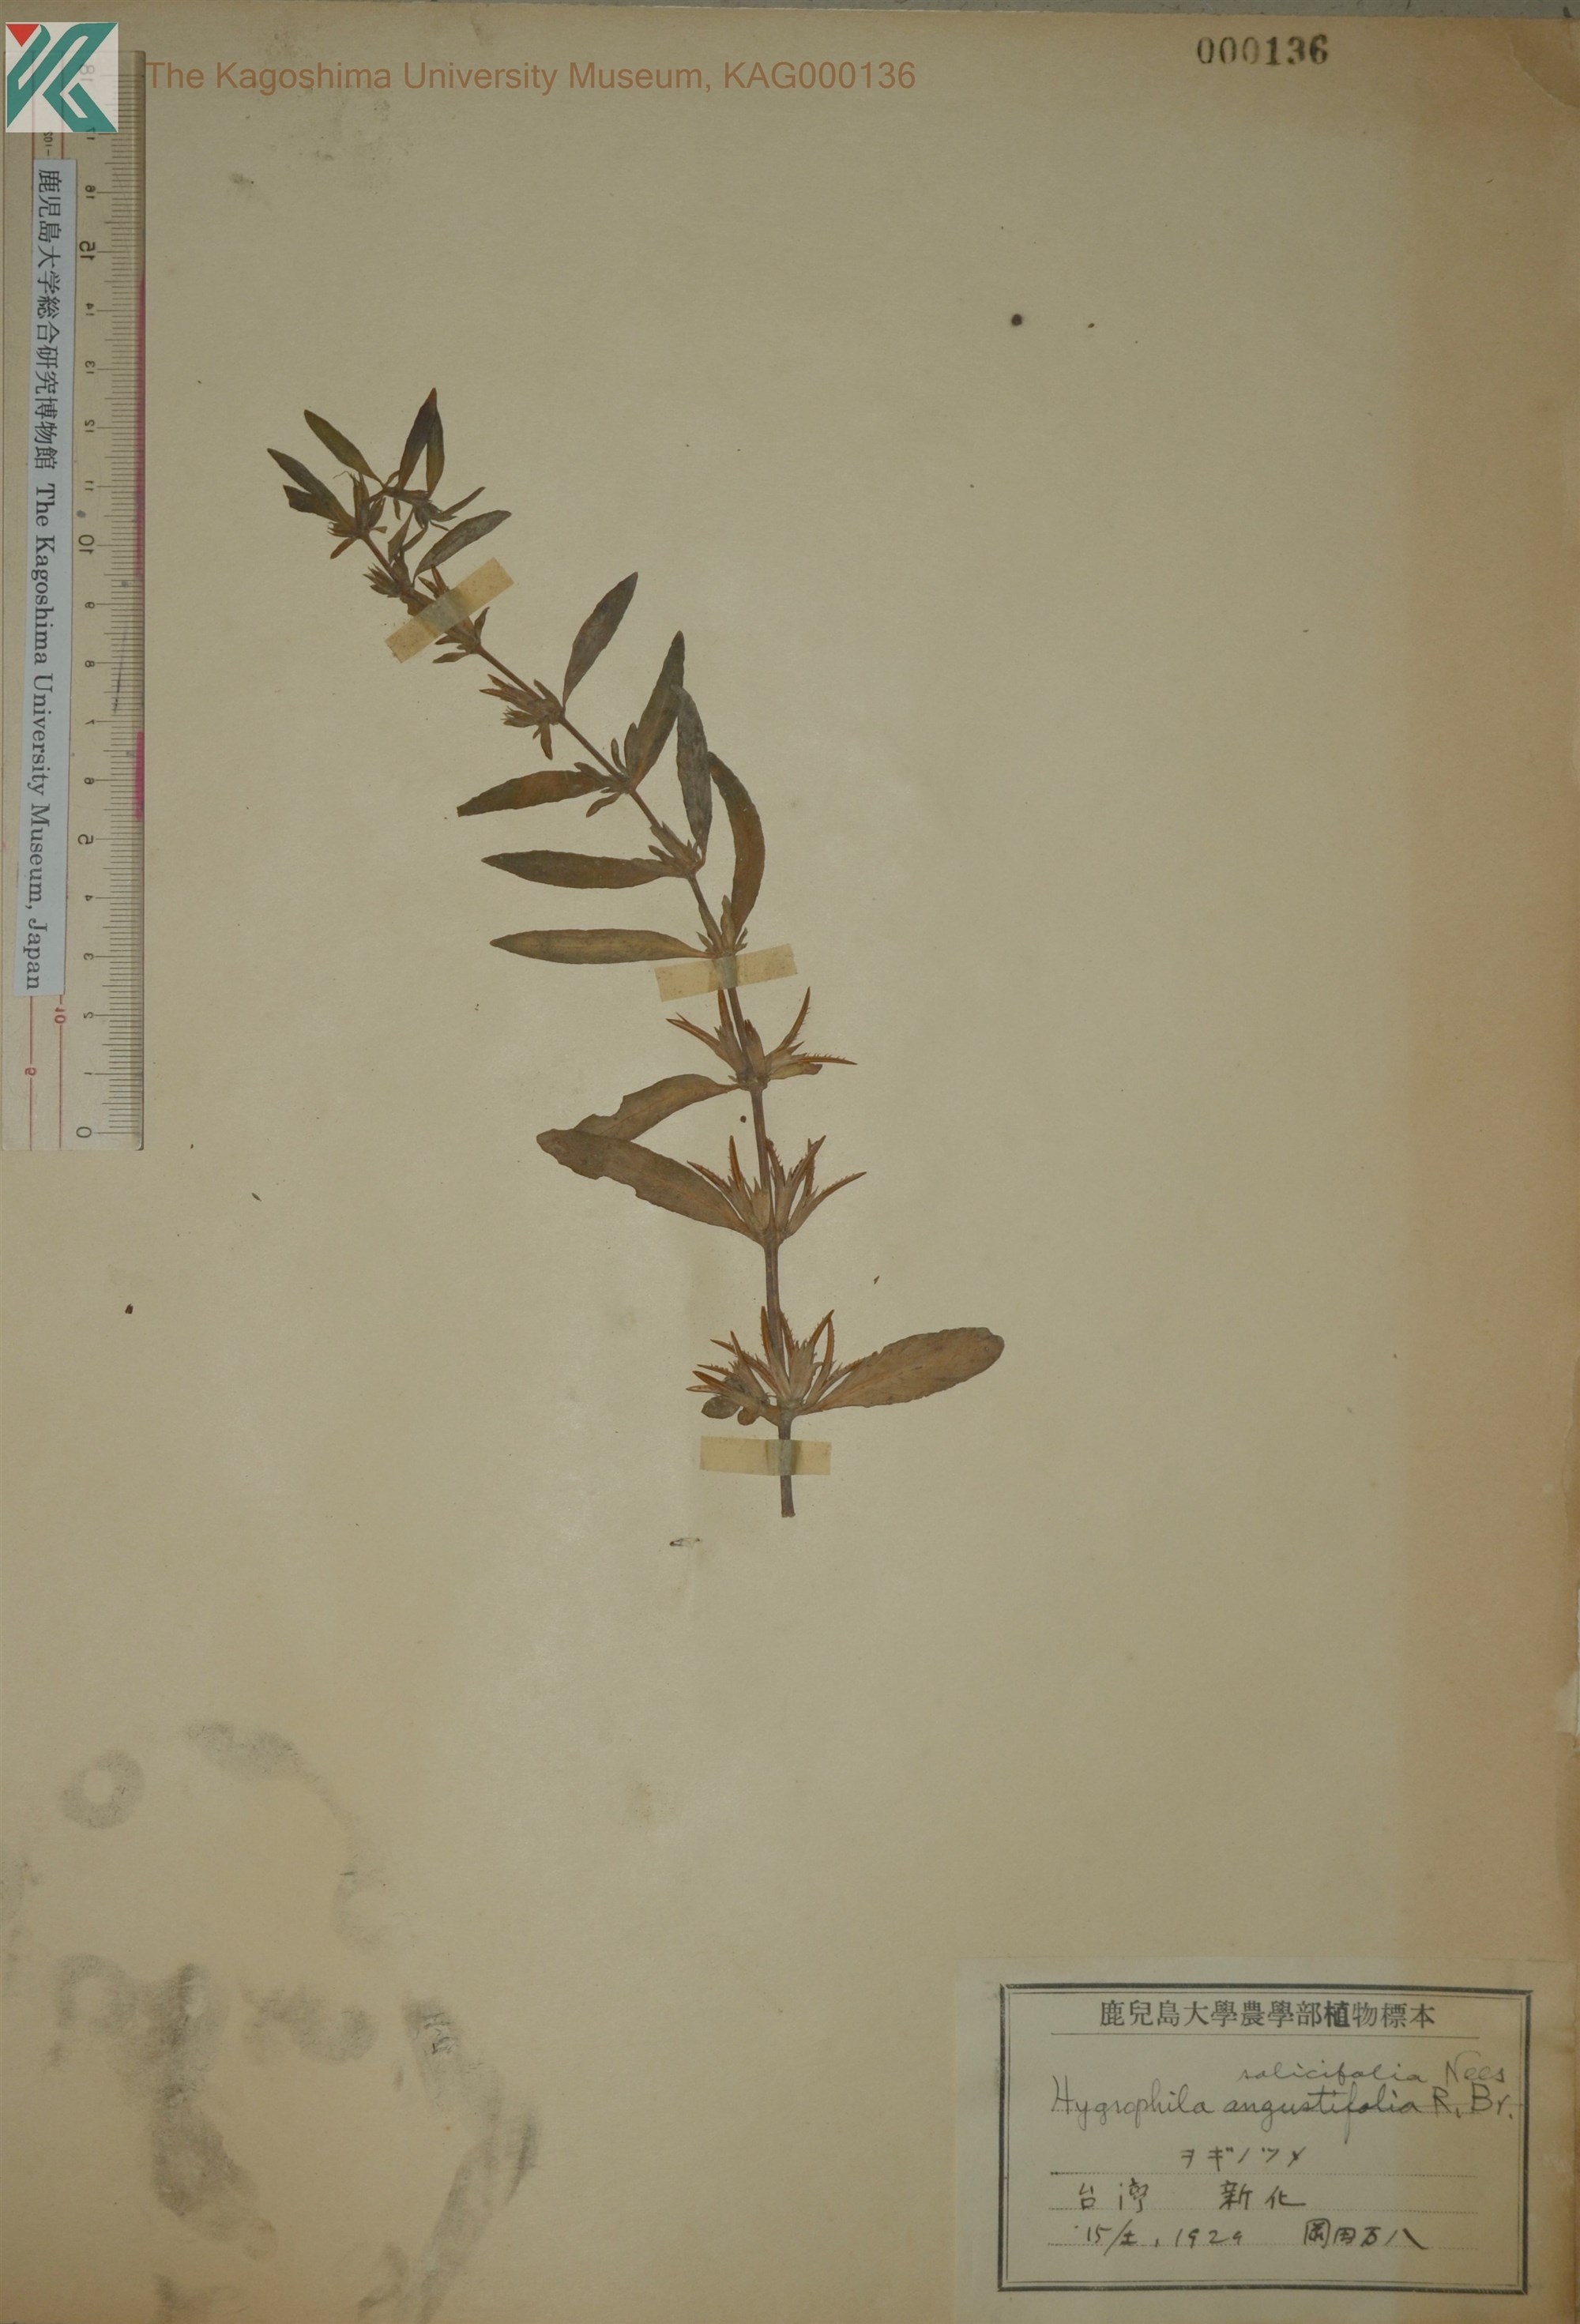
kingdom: Plantae
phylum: Tracheophyta
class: Magnoliopsida
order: Lamiales
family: Acanthaceae
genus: Hygrophila
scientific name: Hygrophila ringens
